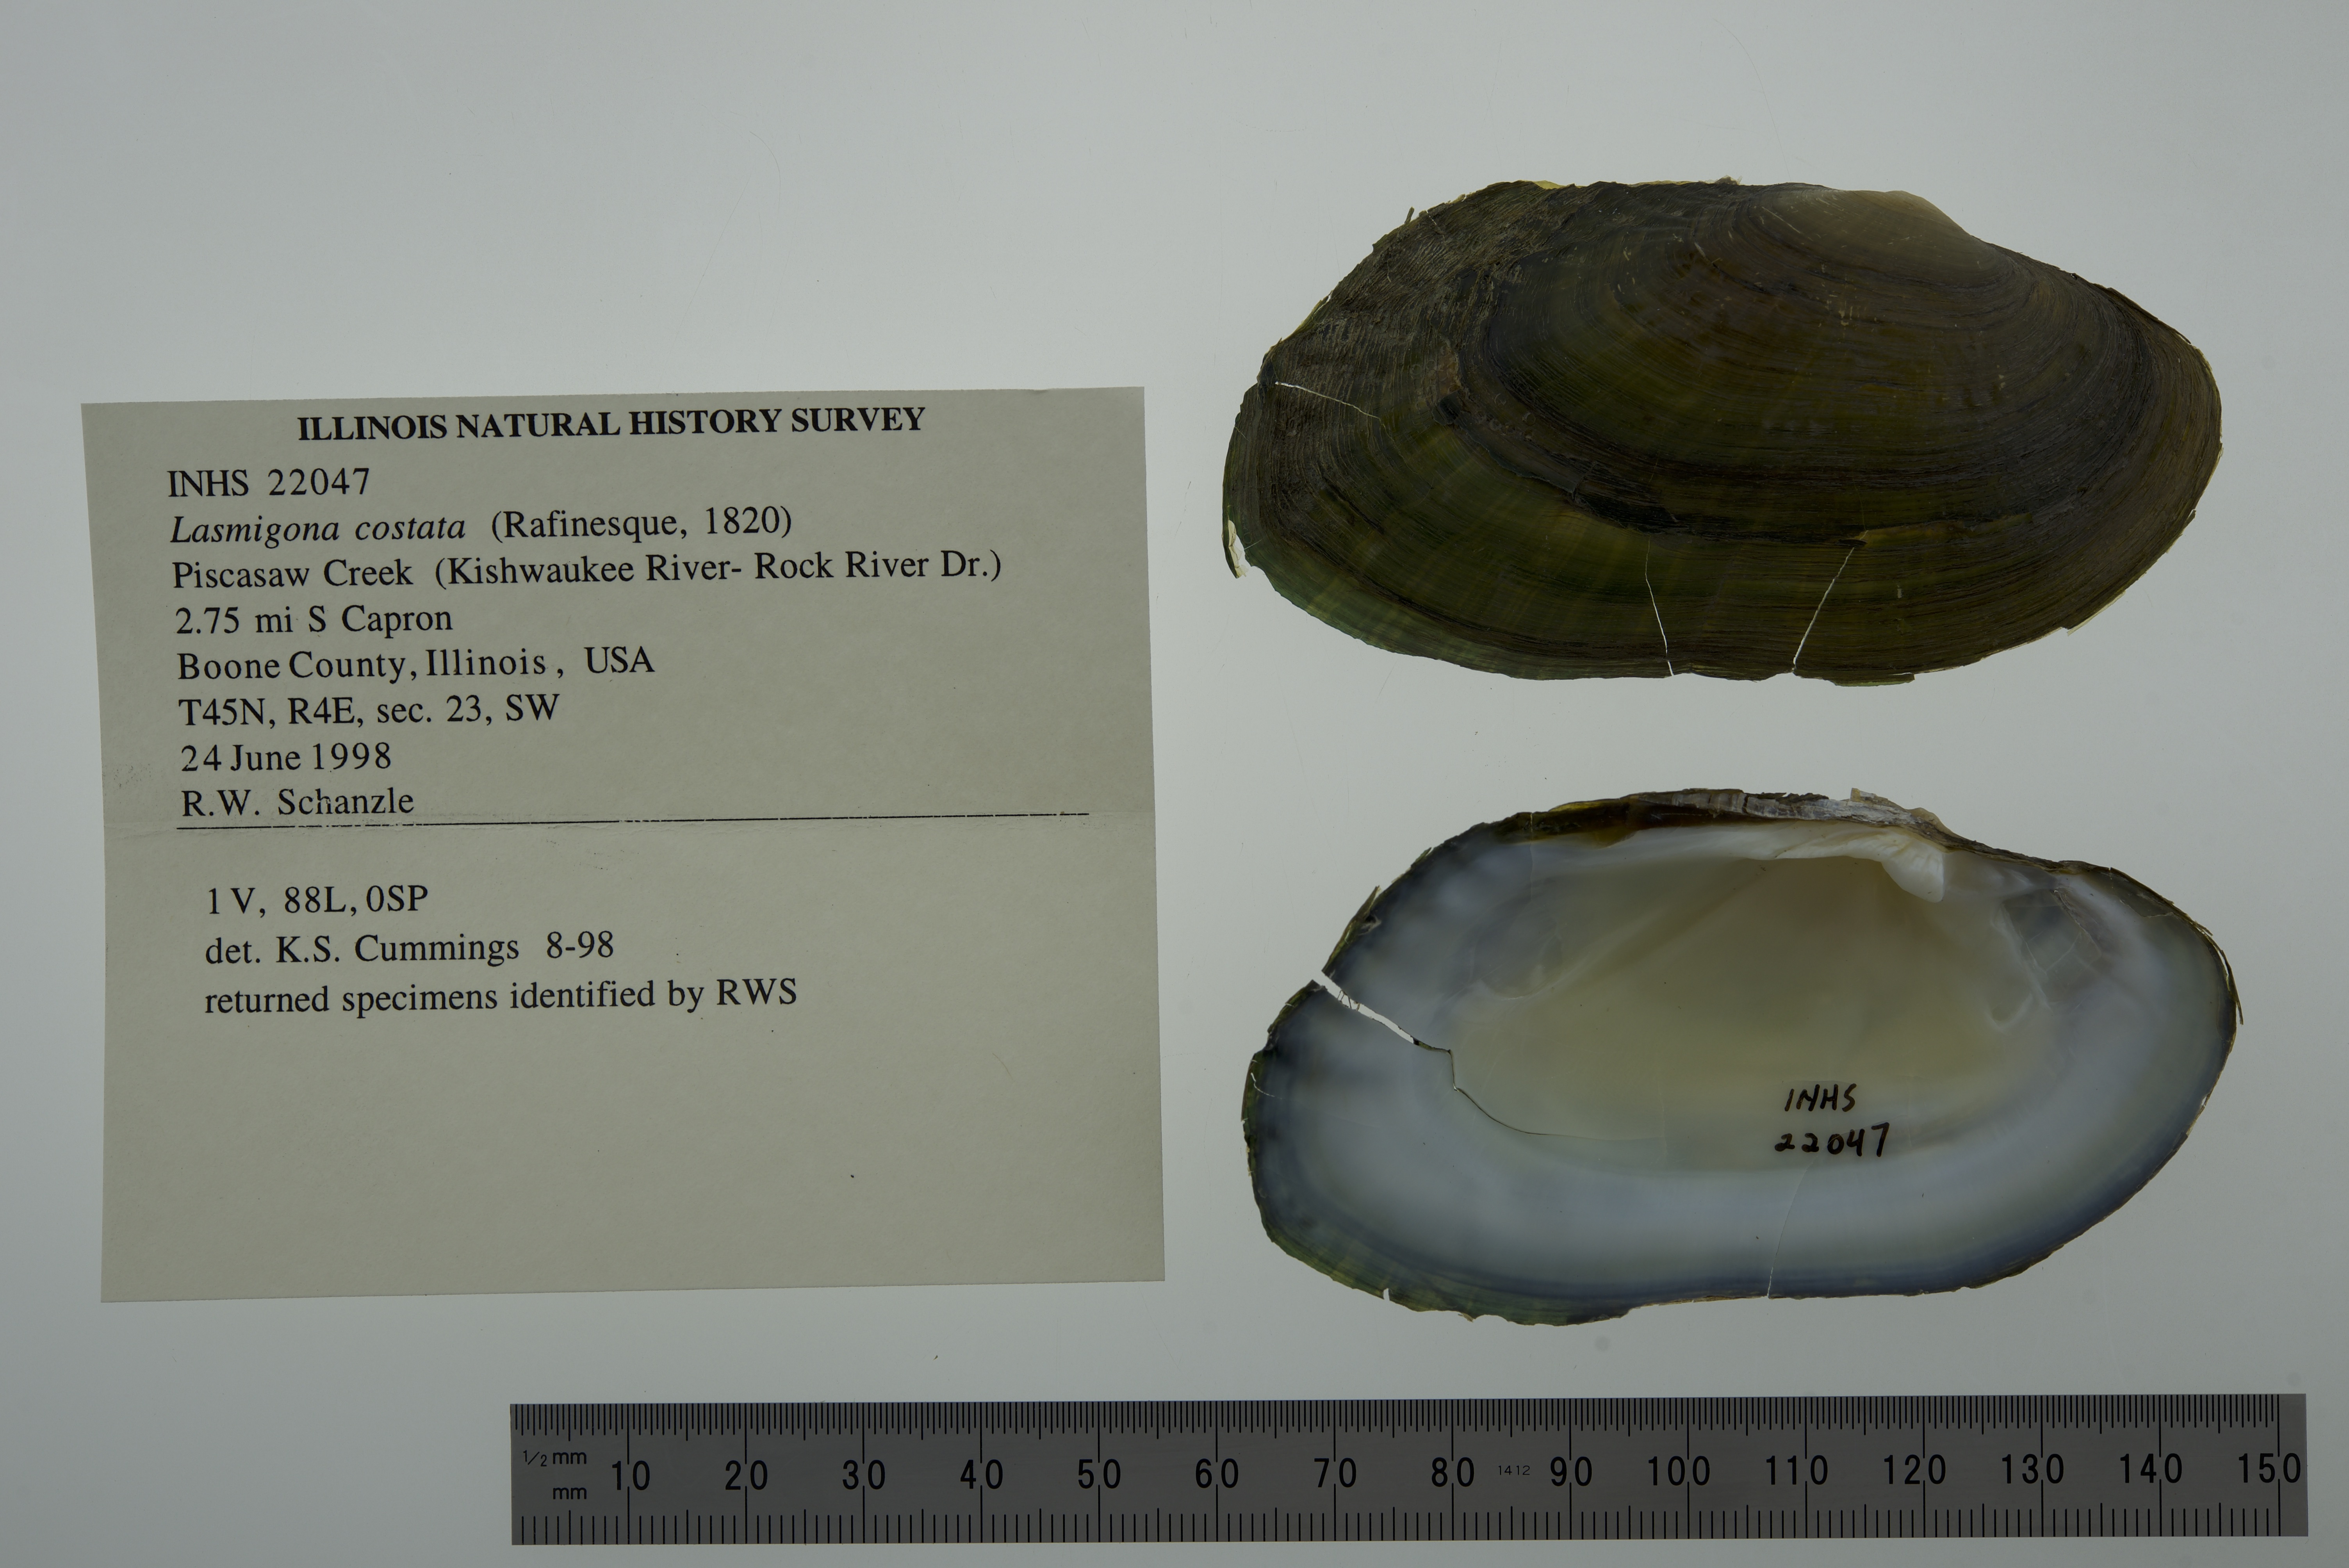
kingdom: Animalia
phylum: Mollusca
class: Bivalvia
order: Unionida
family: Unionidae
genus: Lasmigona
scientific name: Lasmigona costata
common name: Flutedshell
